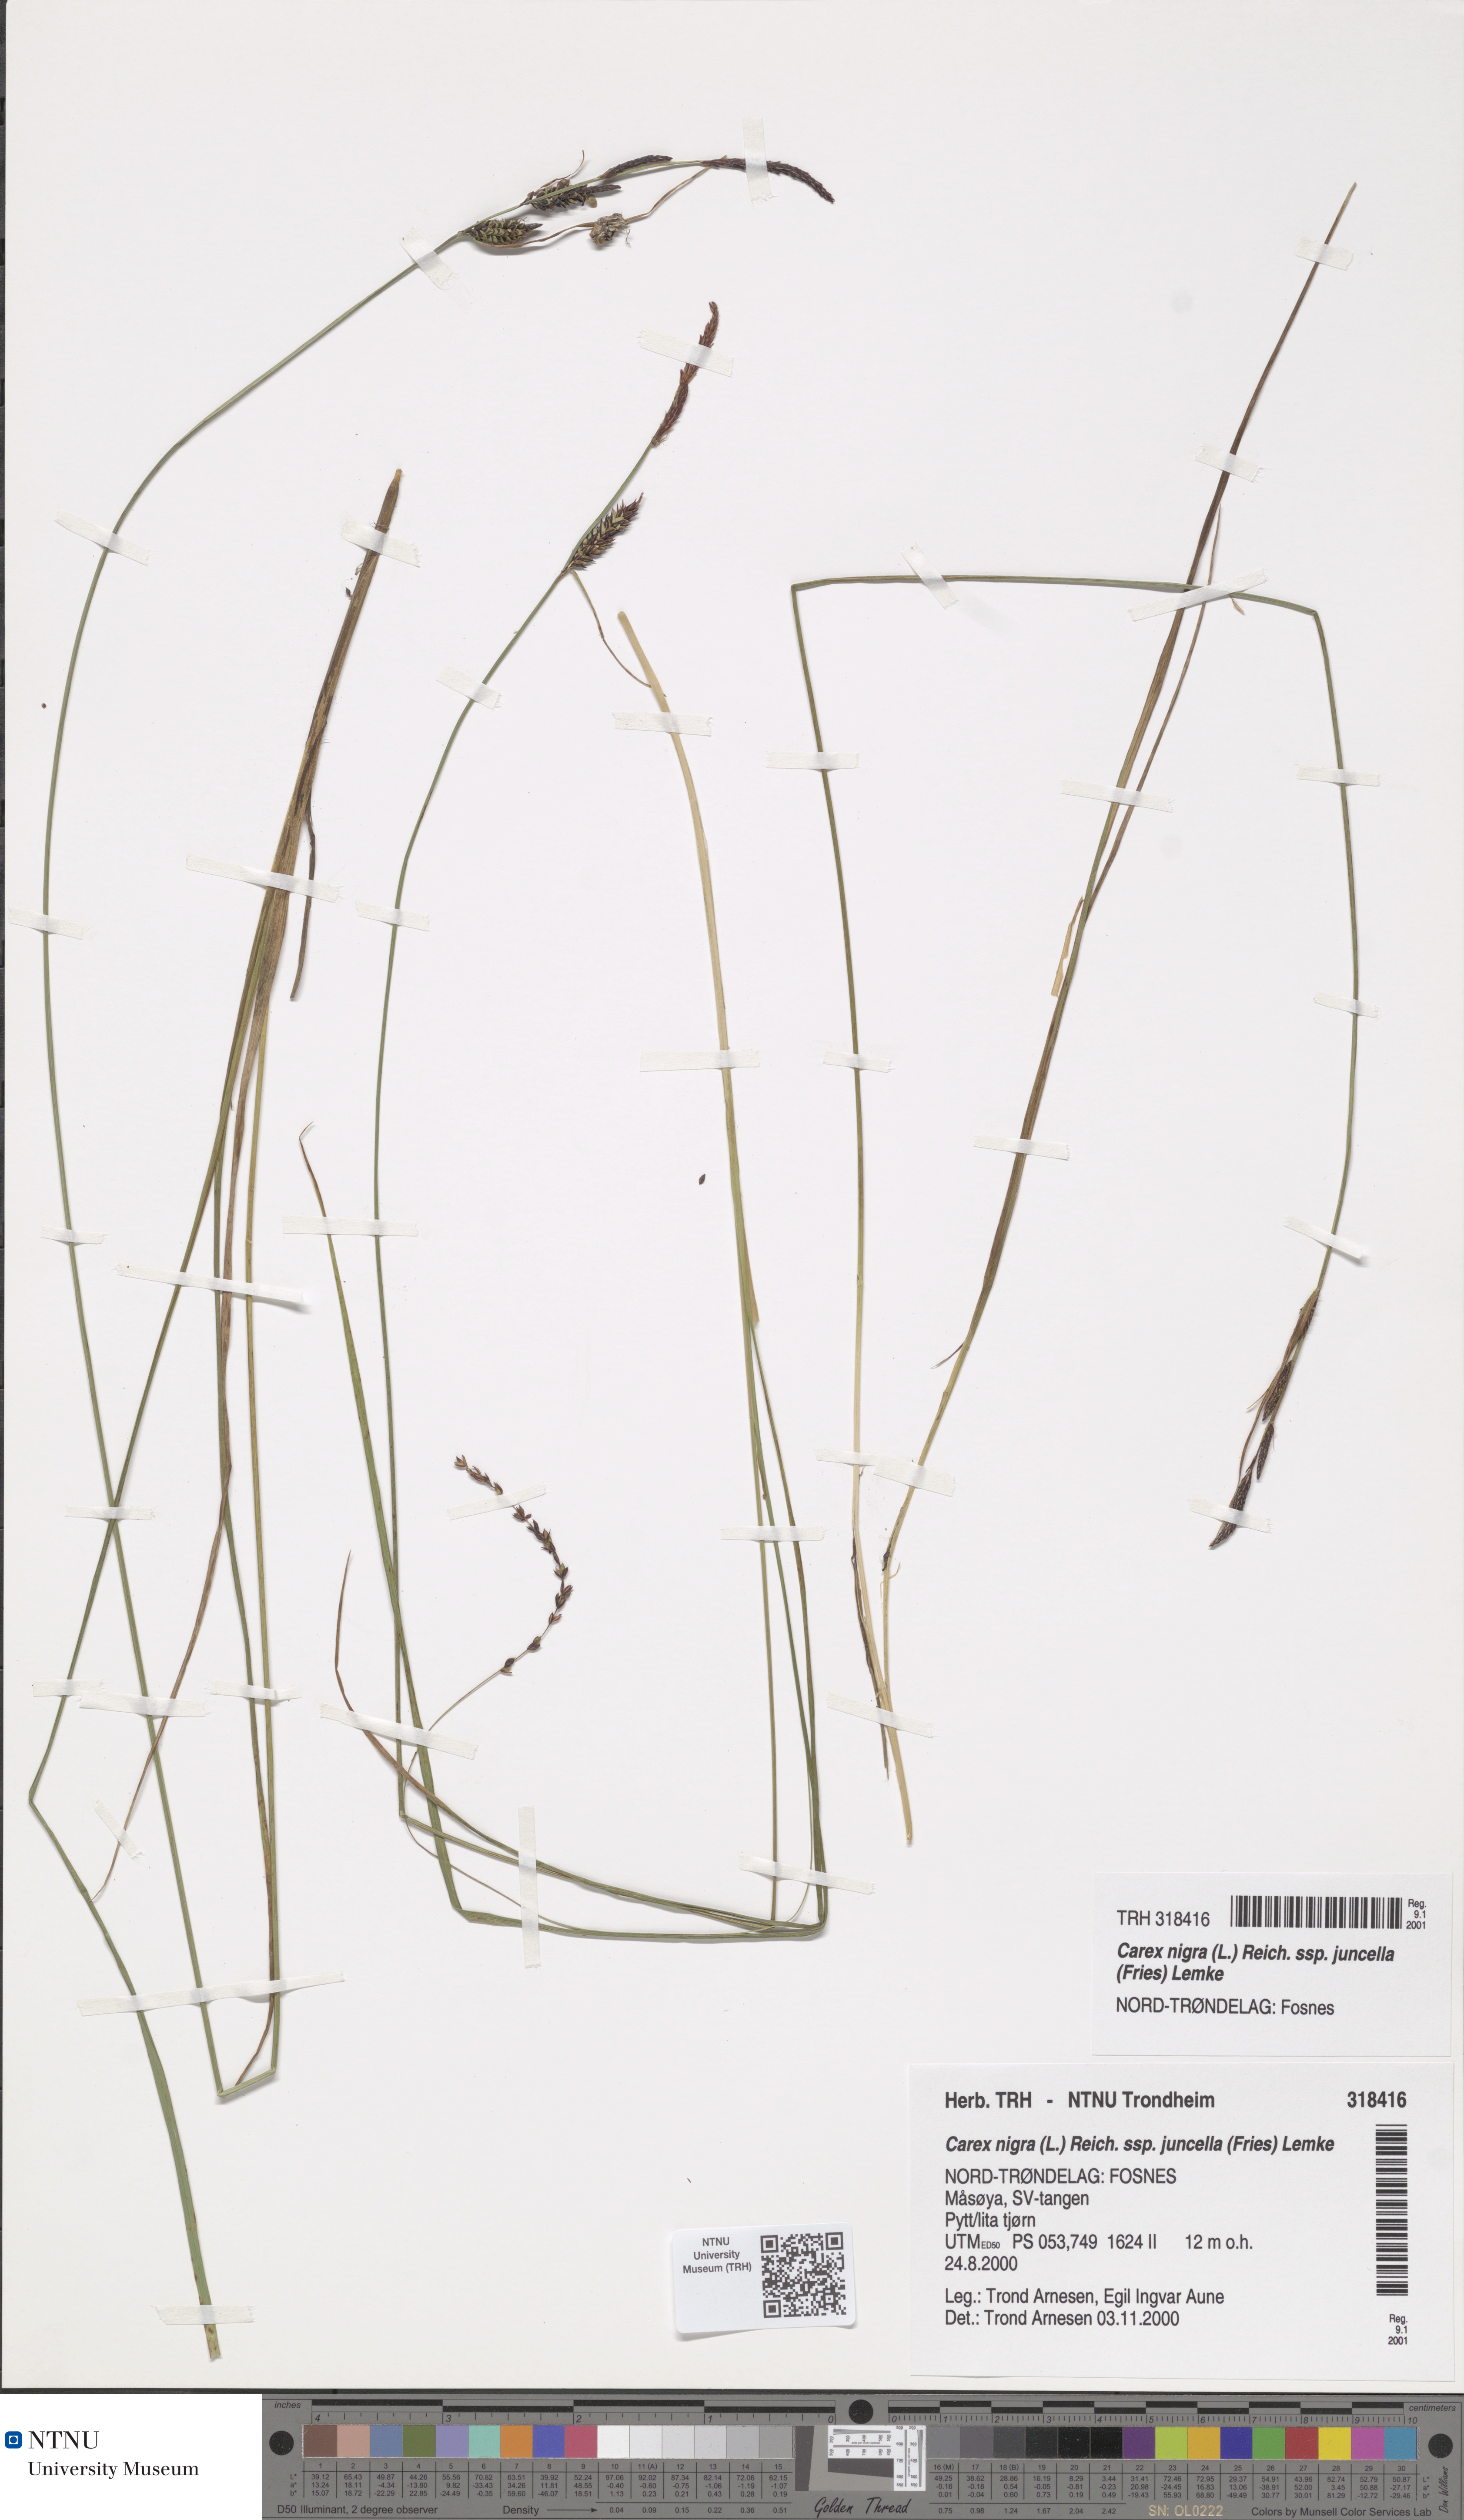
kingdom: Plantae
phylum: Tracheophyta
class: Liliopsida
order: Poales
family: Cyperaceae
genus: Carex
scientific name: Carex nigra
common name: Common sedge
